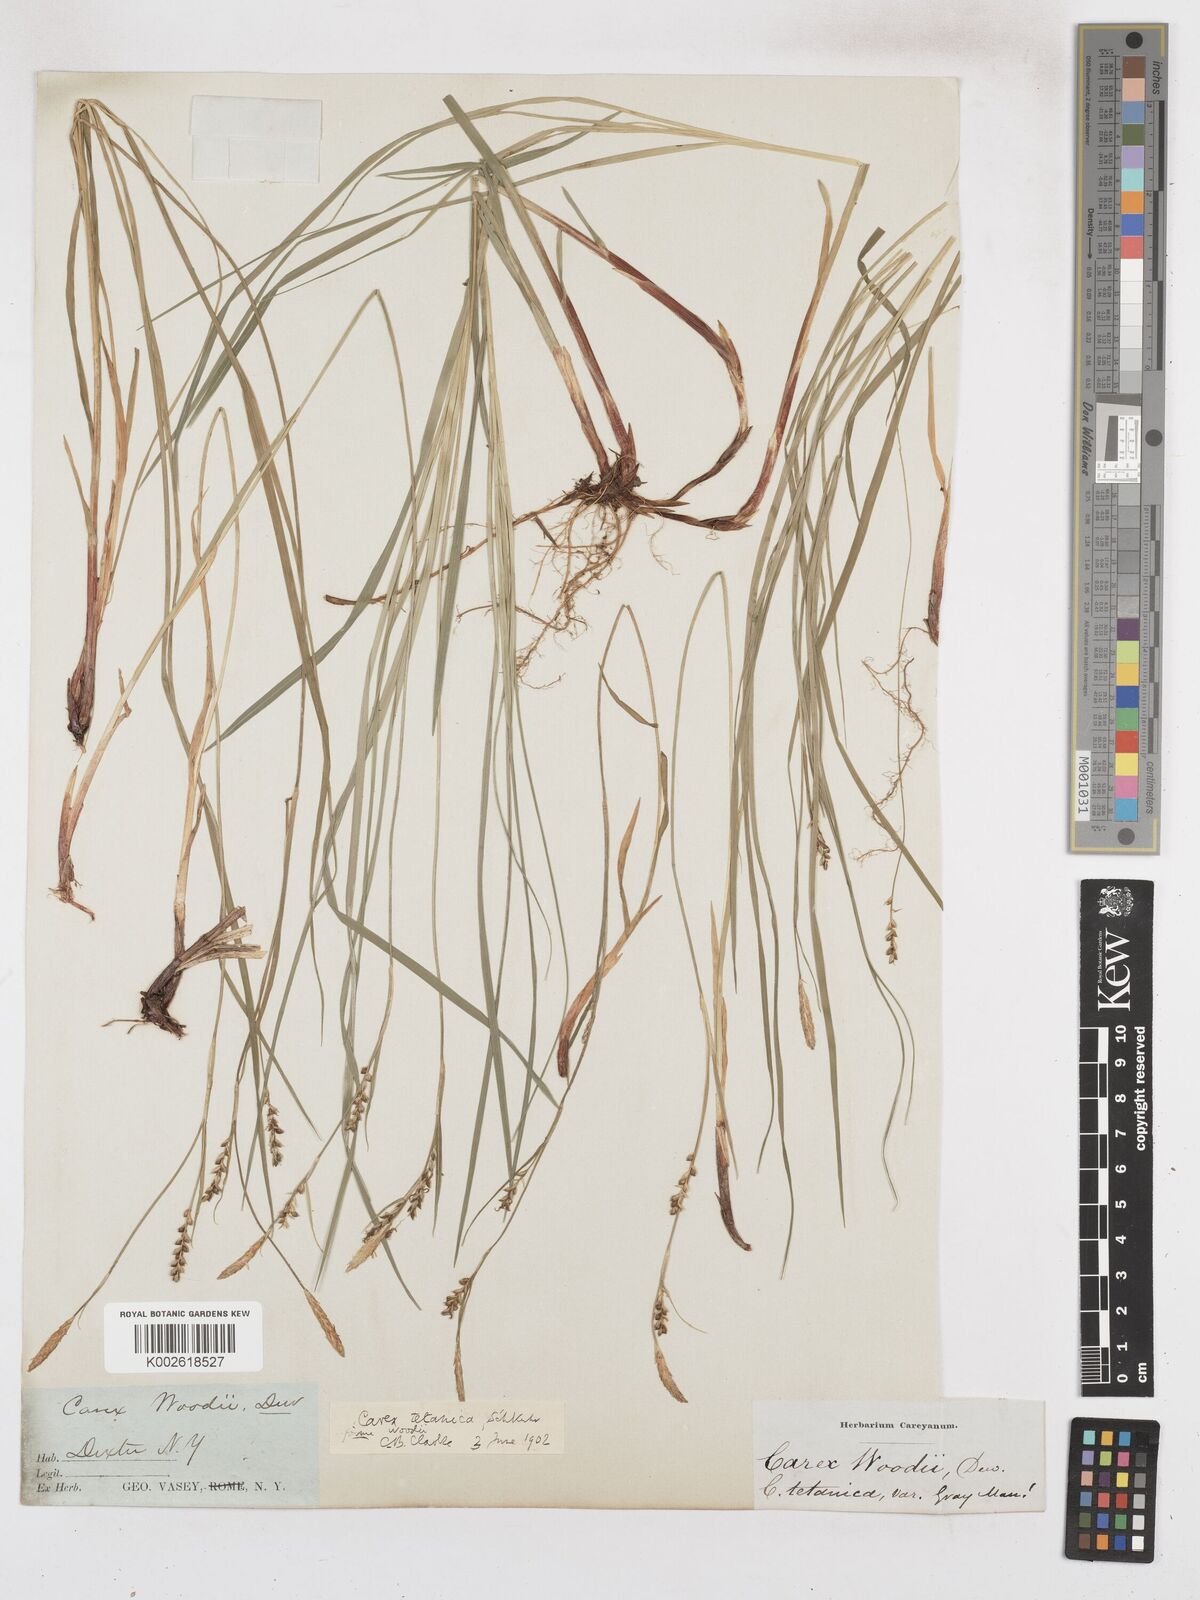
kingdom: Plantae
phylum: Tracheophyta
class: Liliopsida
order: Poales
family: Cyperaceae
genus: Carex
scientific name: Carex tetanica
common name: Rigid sedge
